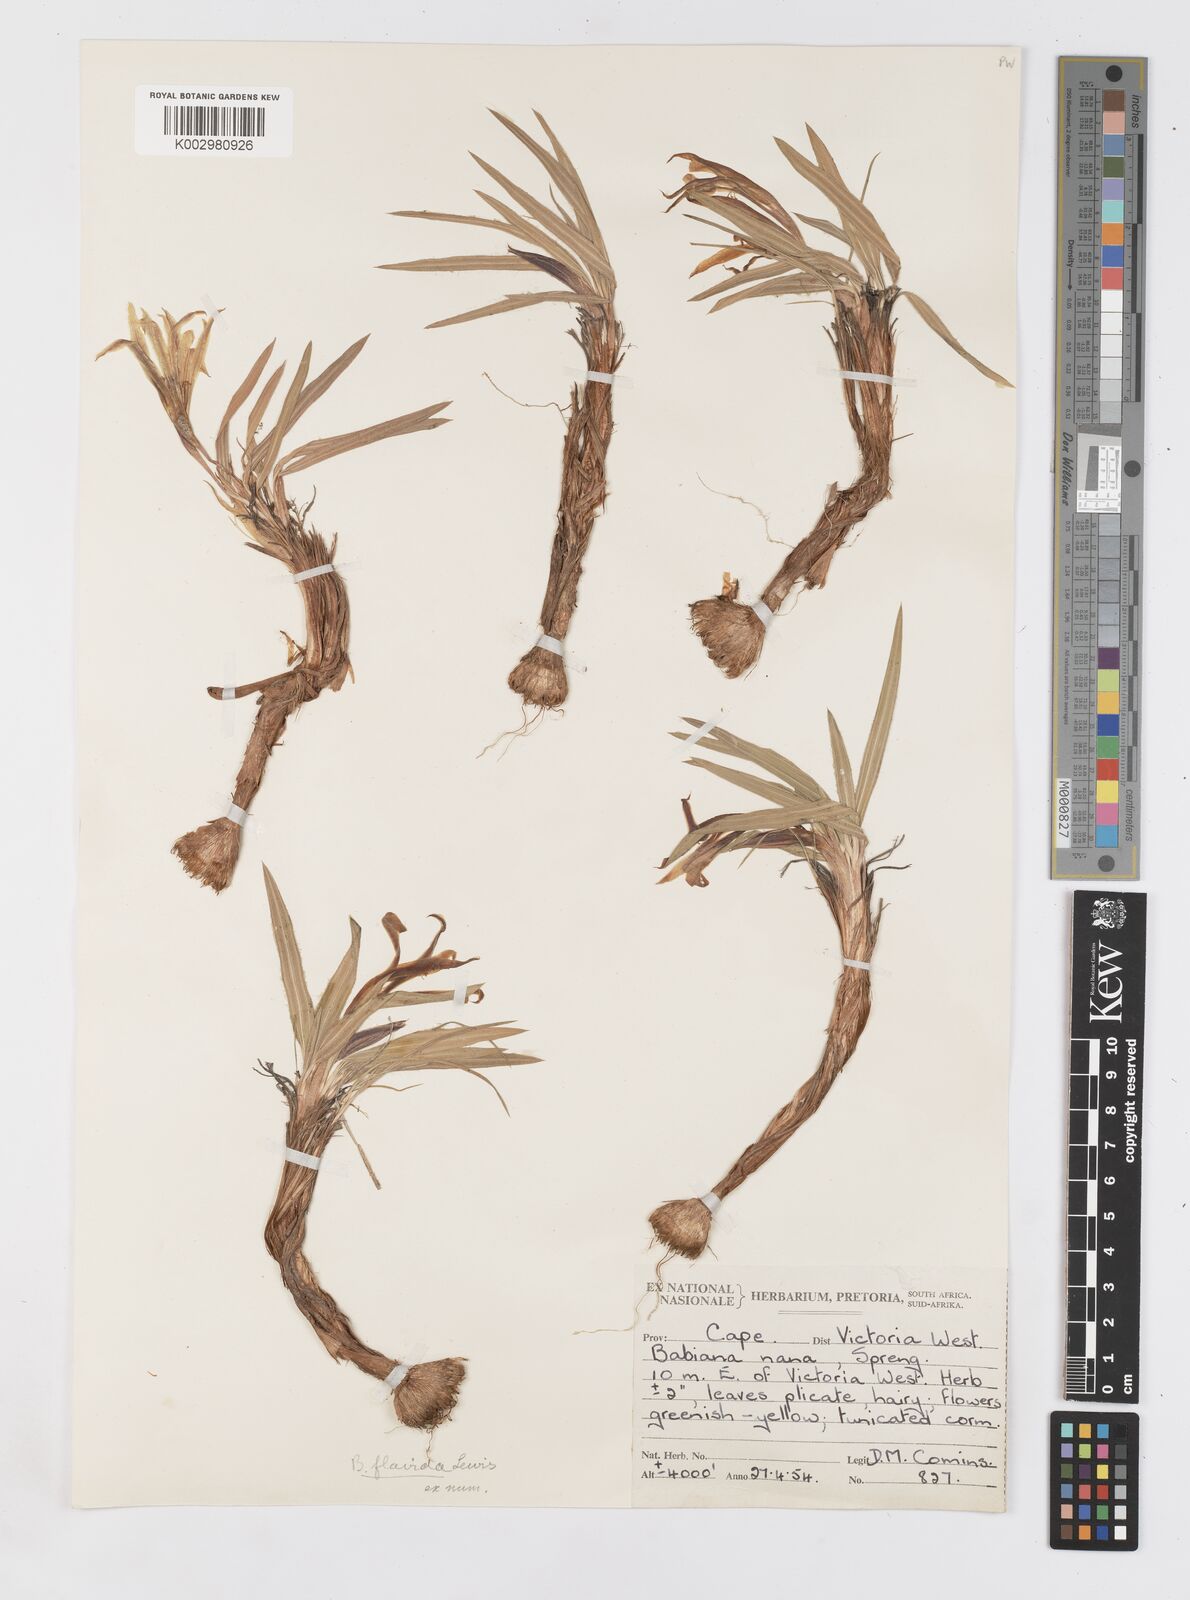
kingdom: Plantae
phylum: Tracheophyta
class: Liliopsida
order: Asparagales
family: Iridaceae
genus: Babiana
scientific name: Babiana hypogaea
